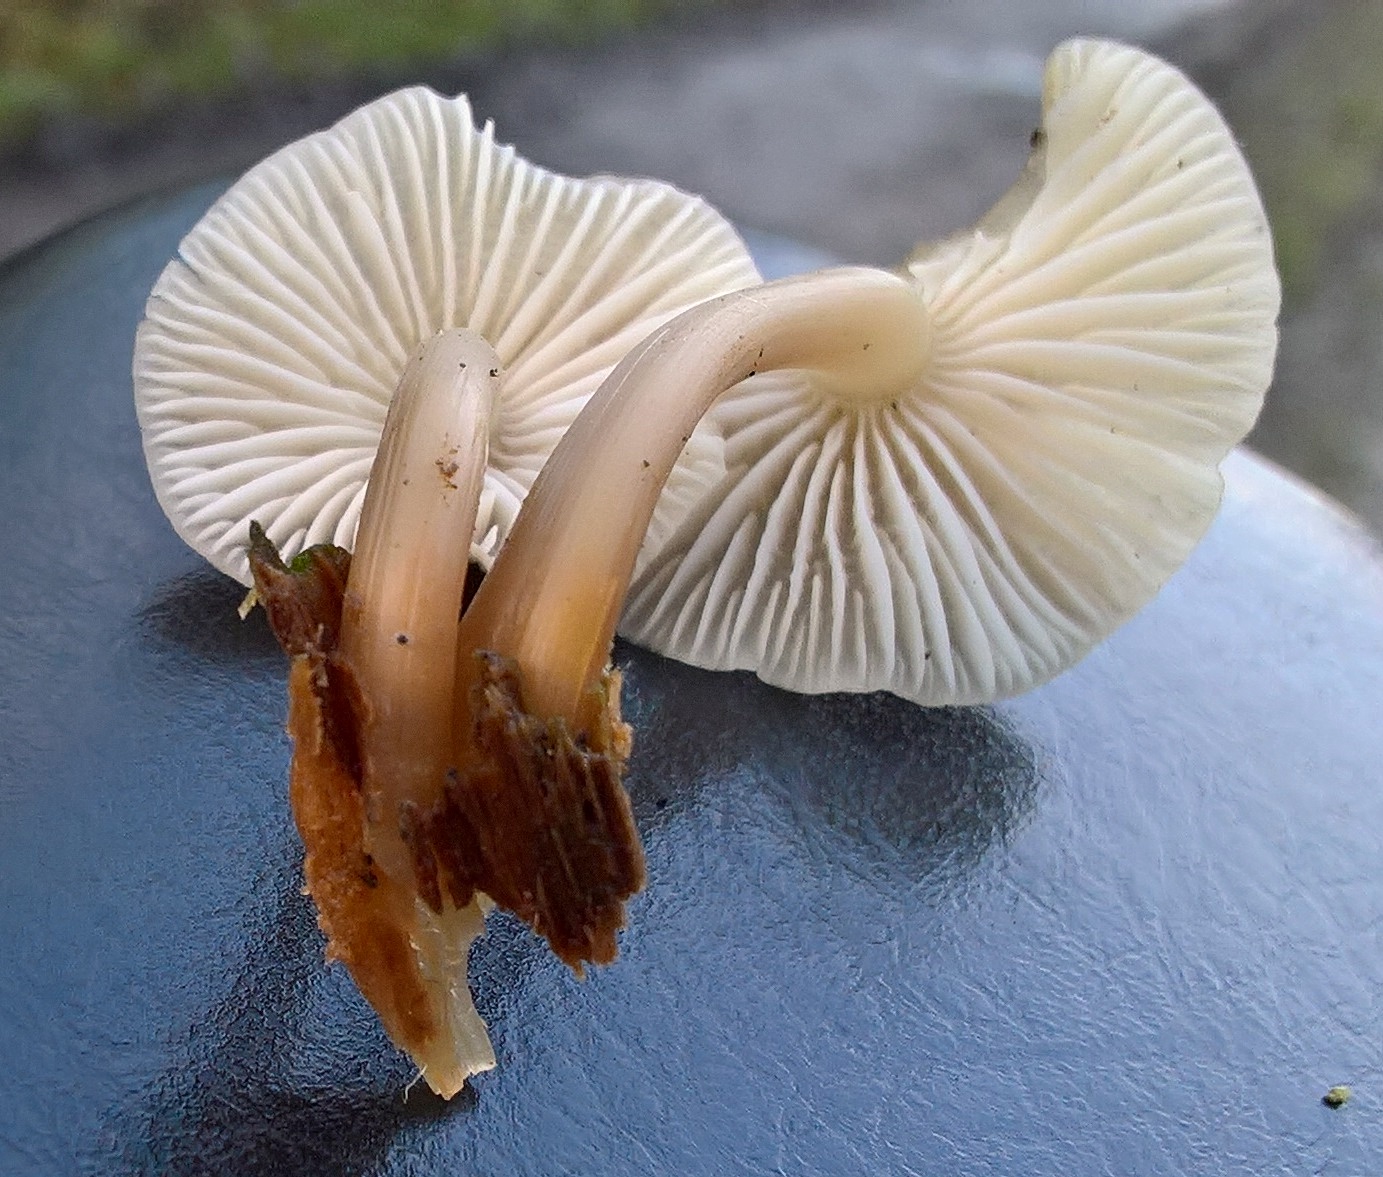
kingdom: Fungi
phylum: Basidiomycota
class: Agaricomycetes
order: Agaricales
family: Mycenaceae
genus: Mycena
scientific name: Mycena galericulata
